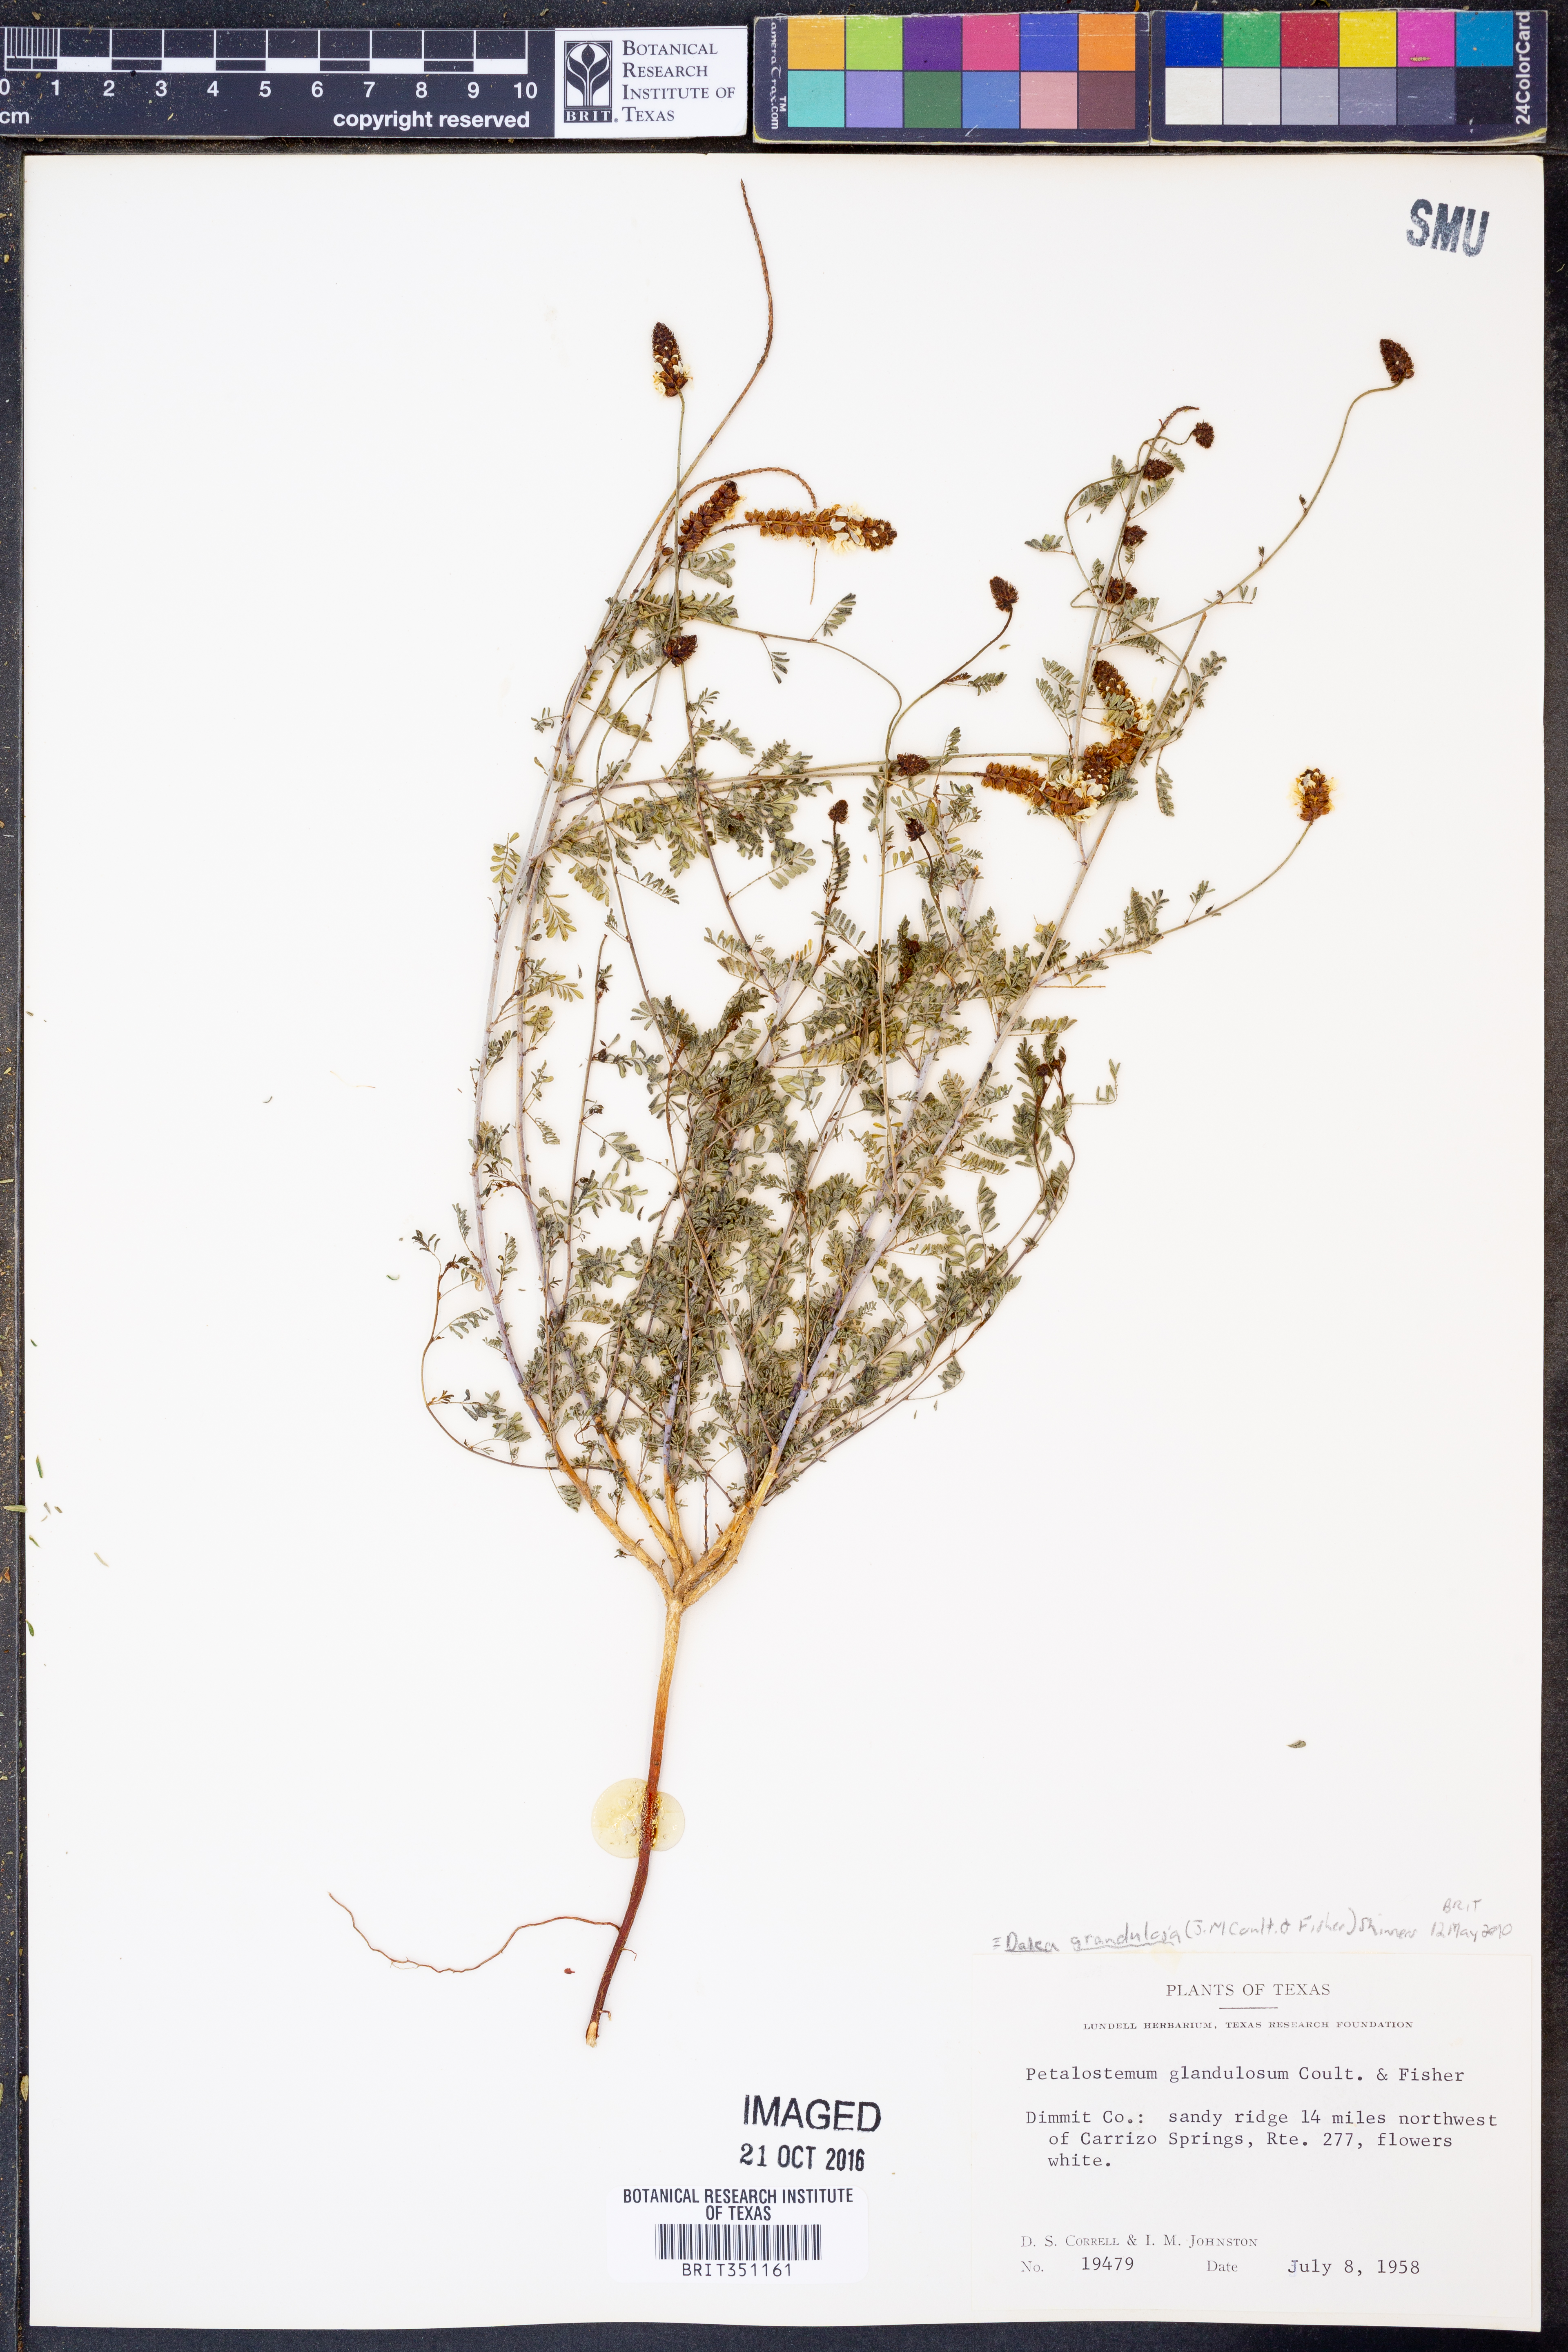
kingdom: Plantae
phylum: Tracheophyta
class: Magnoliopsida
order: Fabales
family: Fabaceae
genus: Dalea
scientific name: Dalea phleoides
